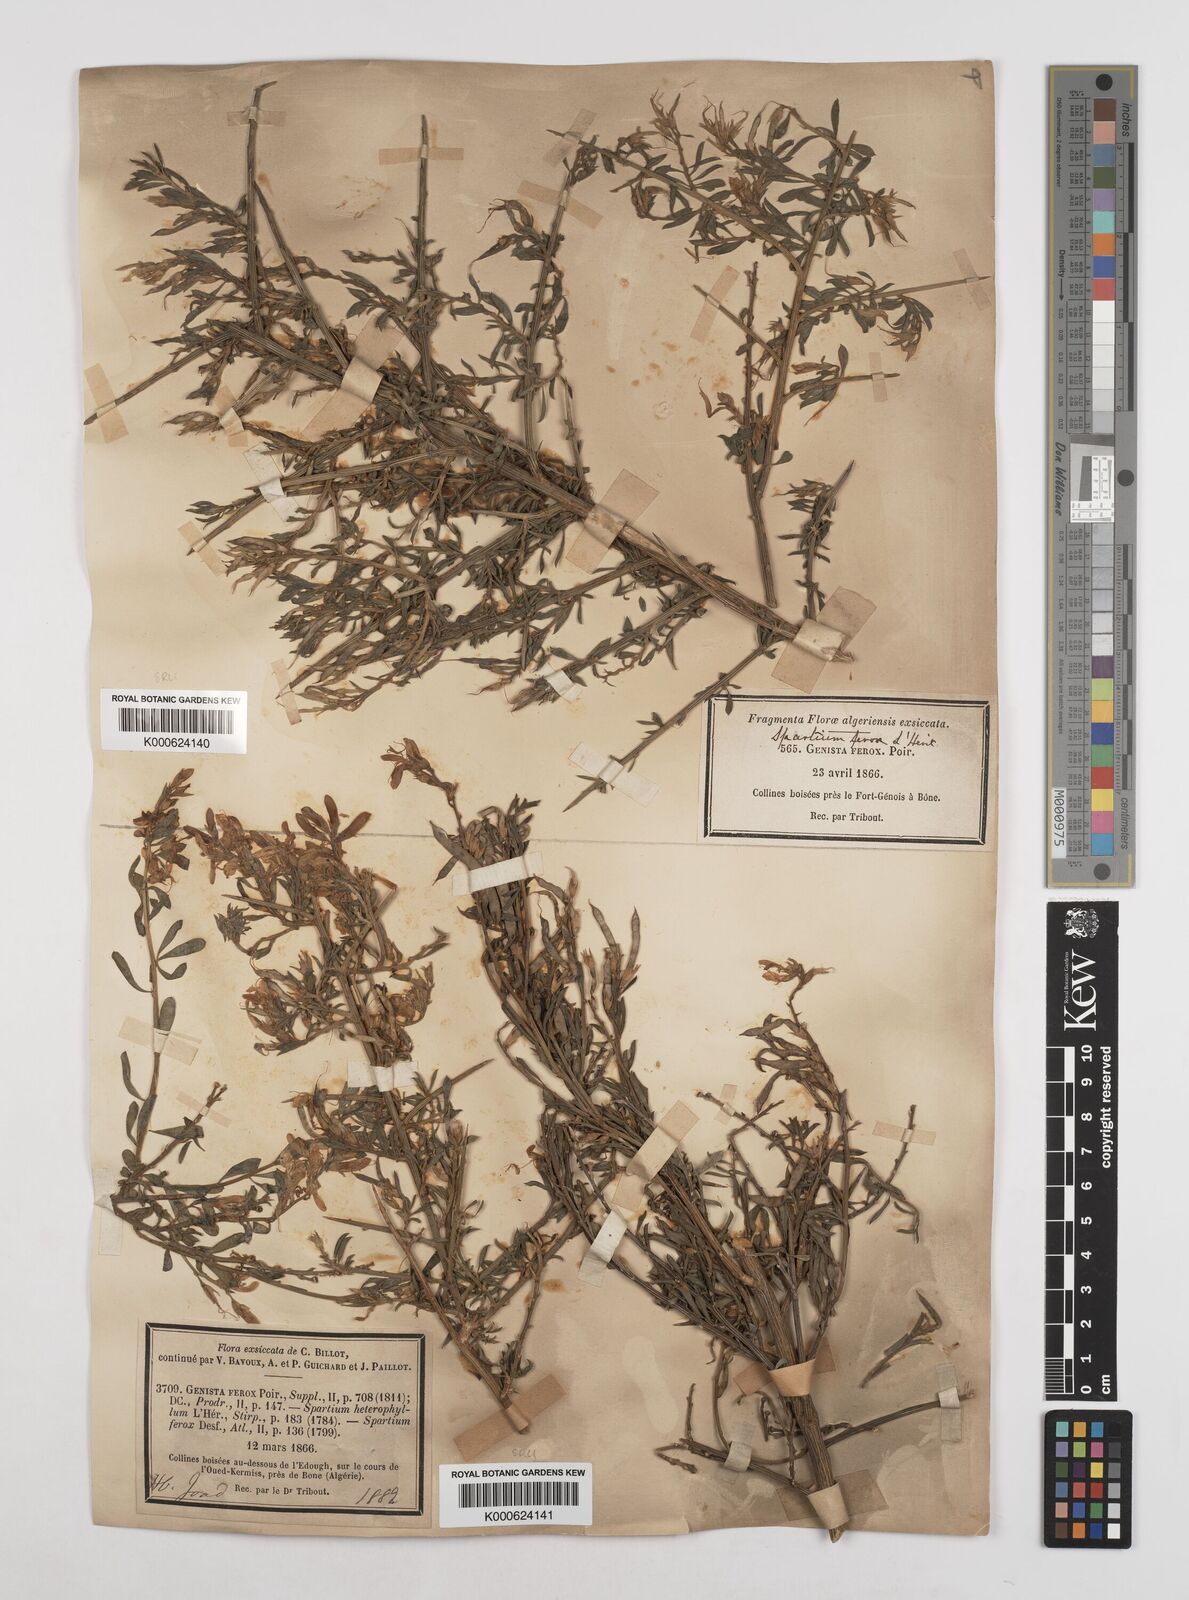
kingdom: Plantae
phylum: Tracheophyta
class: Magnoliopsida
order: Fabales
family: Fabaceae
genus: Genista
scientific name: Genista ferox
